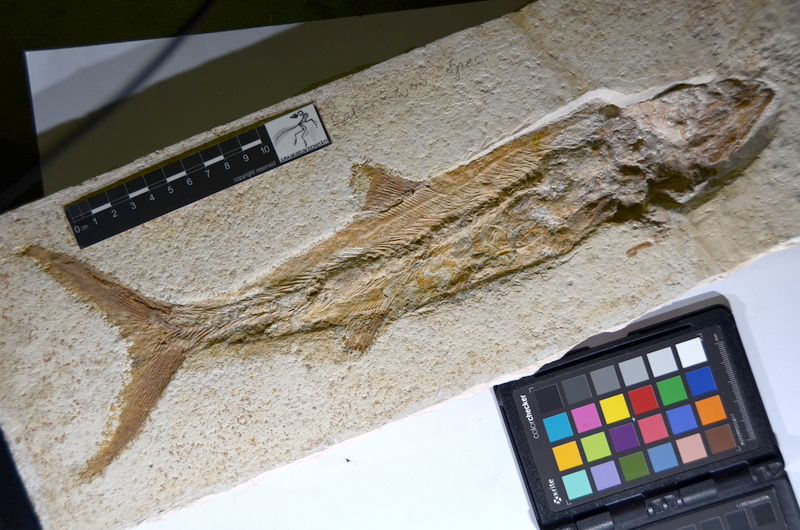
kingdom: Animalia
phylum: Chordata
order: Amiiformes
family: Caturidae
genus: Caturus
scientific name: Caturus
